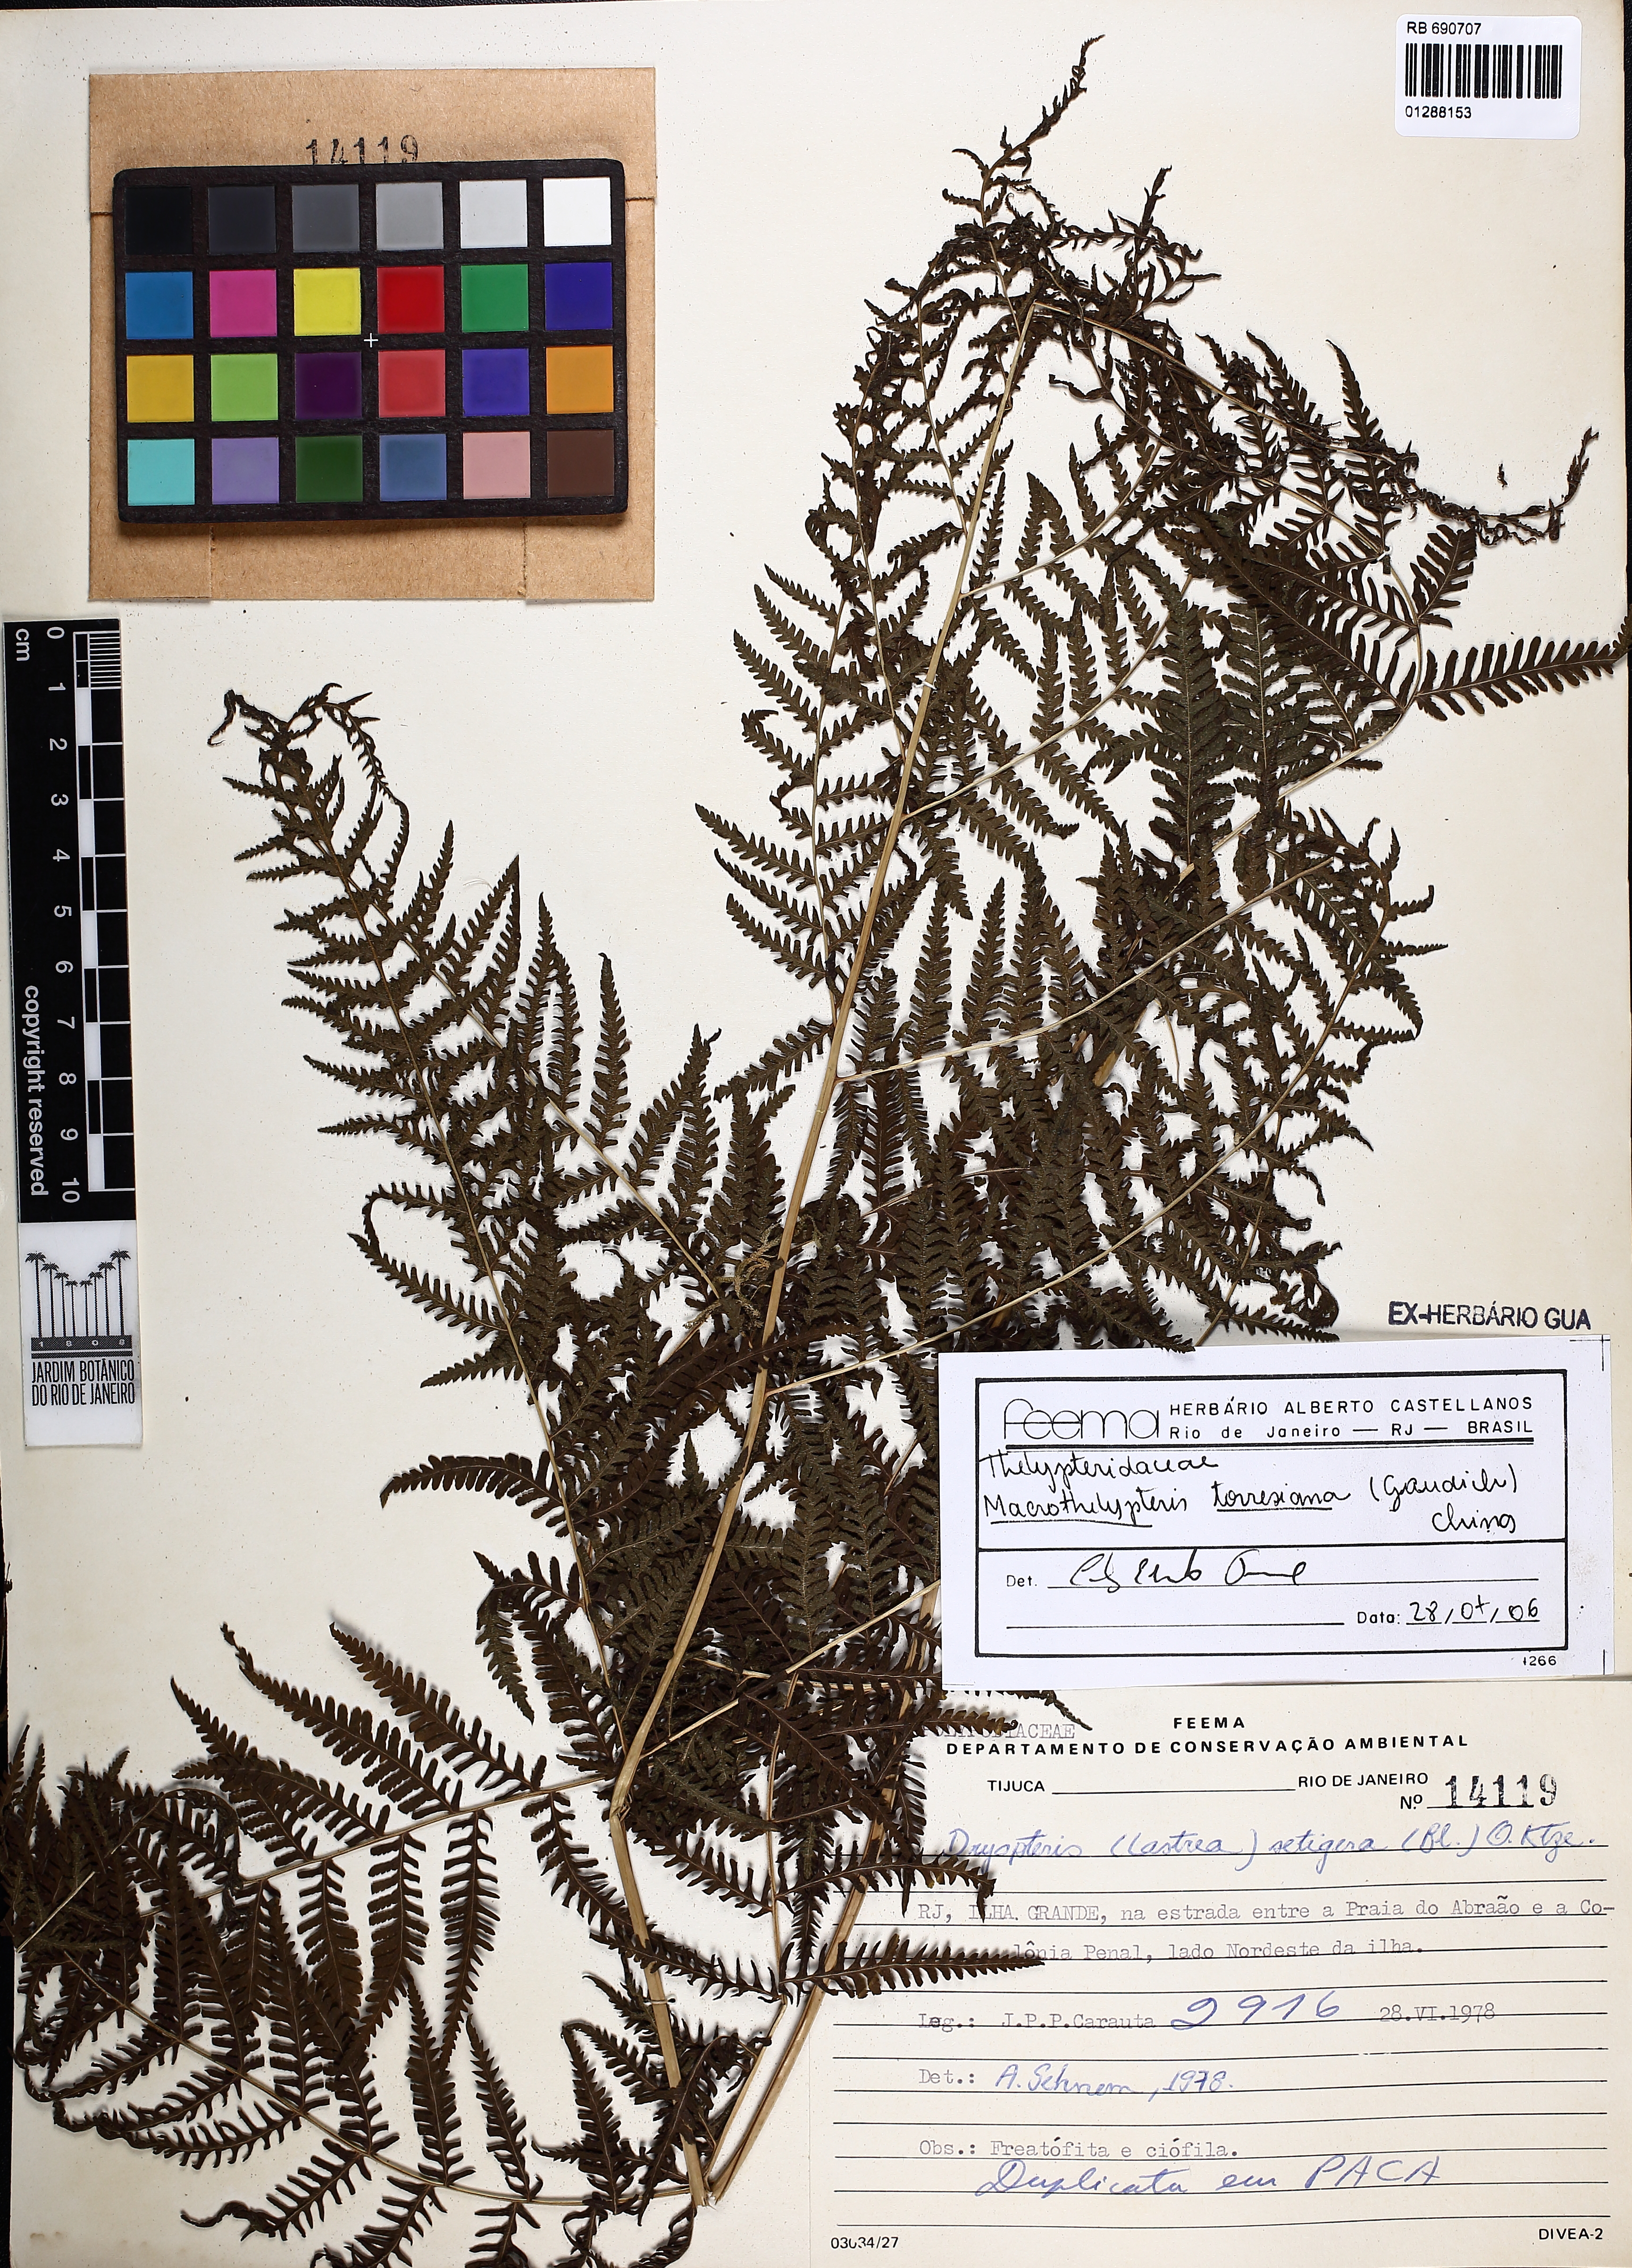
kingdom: Plantae
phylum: Tracheophyta
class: Polypodiopsida
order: Polypodiales
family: Thelypteridaceae
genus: Macrothelypteris
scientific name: Macrothelypteris torresiana
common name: Swordfern
